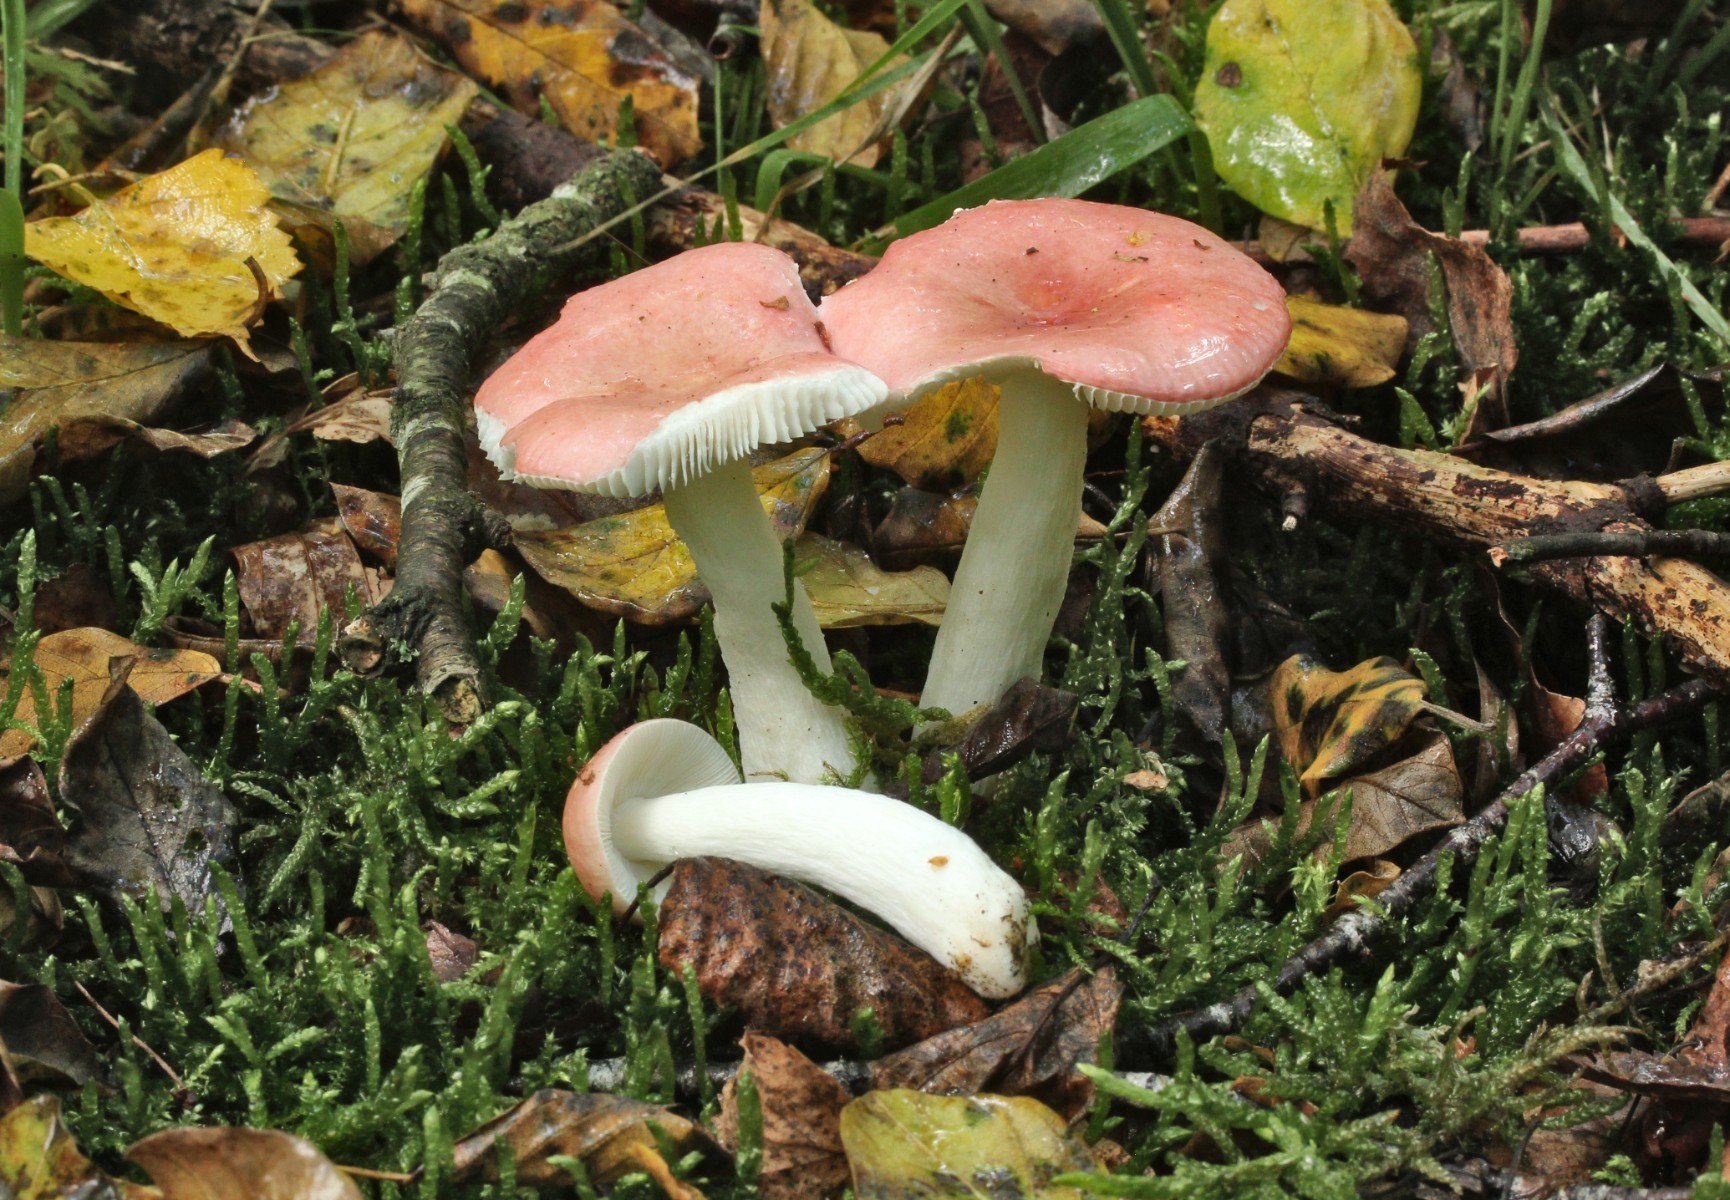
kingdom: Fungi
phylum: Basidiomycota
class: Agaricomycetes
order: Russulales
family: Russulaceae
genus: Russula
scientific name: Russula betularum
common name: bleg gift-skørhat
